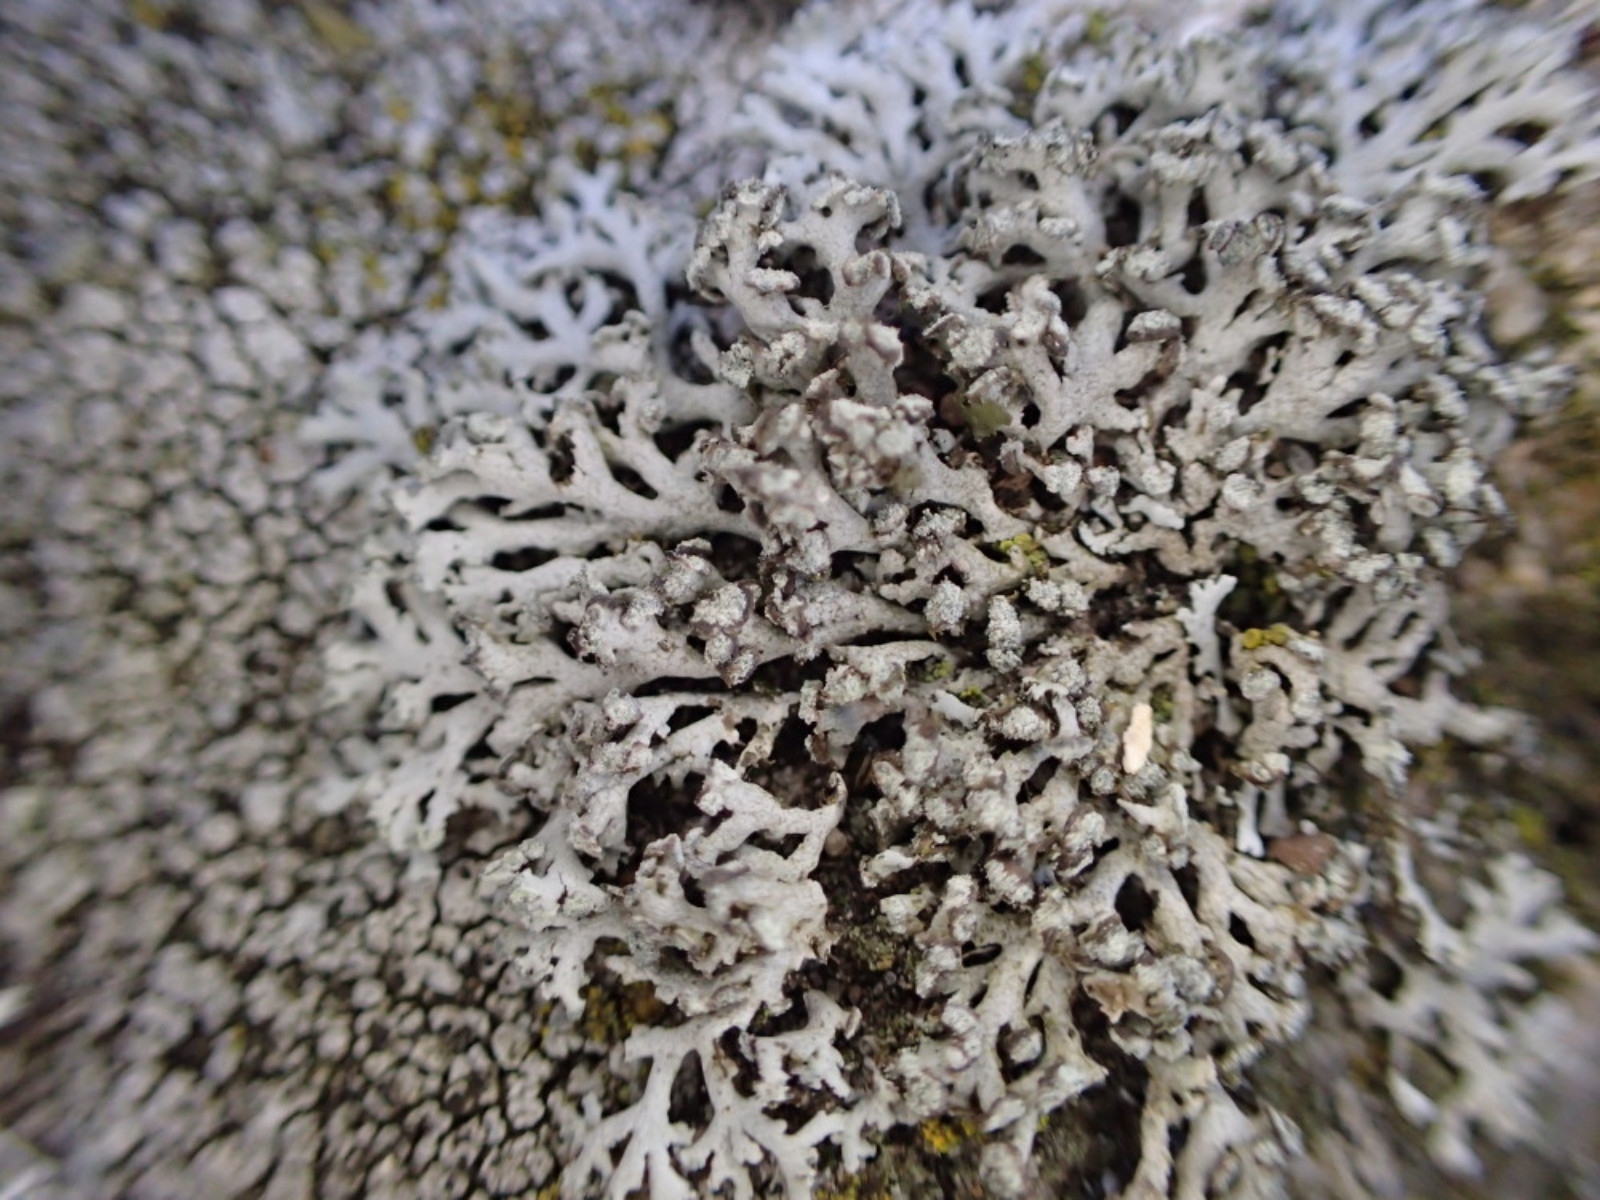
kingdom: Fungi
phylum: Ascomycota
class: Lecanoromycetes
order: Caliciales
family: Physciaceae
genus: Physcia
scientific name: Physcia tenella
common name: spæd rosetlav
